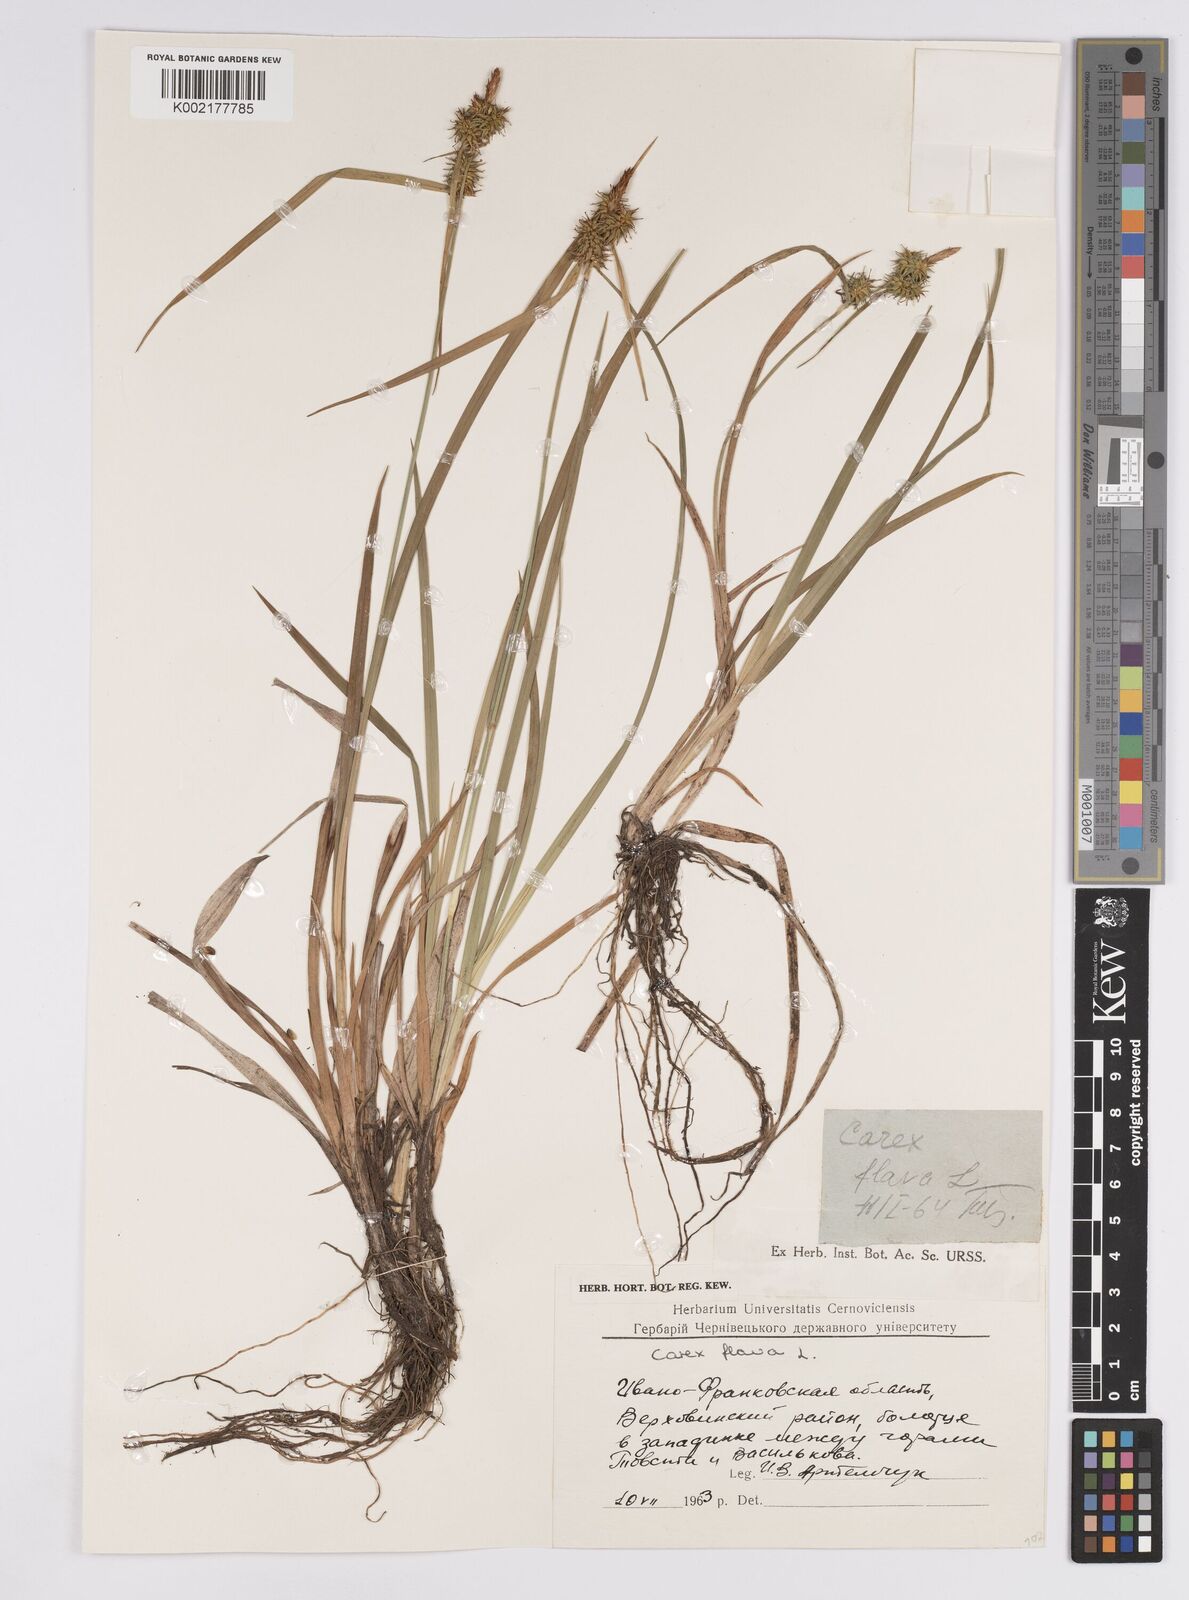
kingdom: Plantae
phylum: Tracheophyta
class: Liliopsida
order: Poales
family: Cyperaceae
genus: Carex
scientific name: Carex flava
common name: Large yellow-sedge
